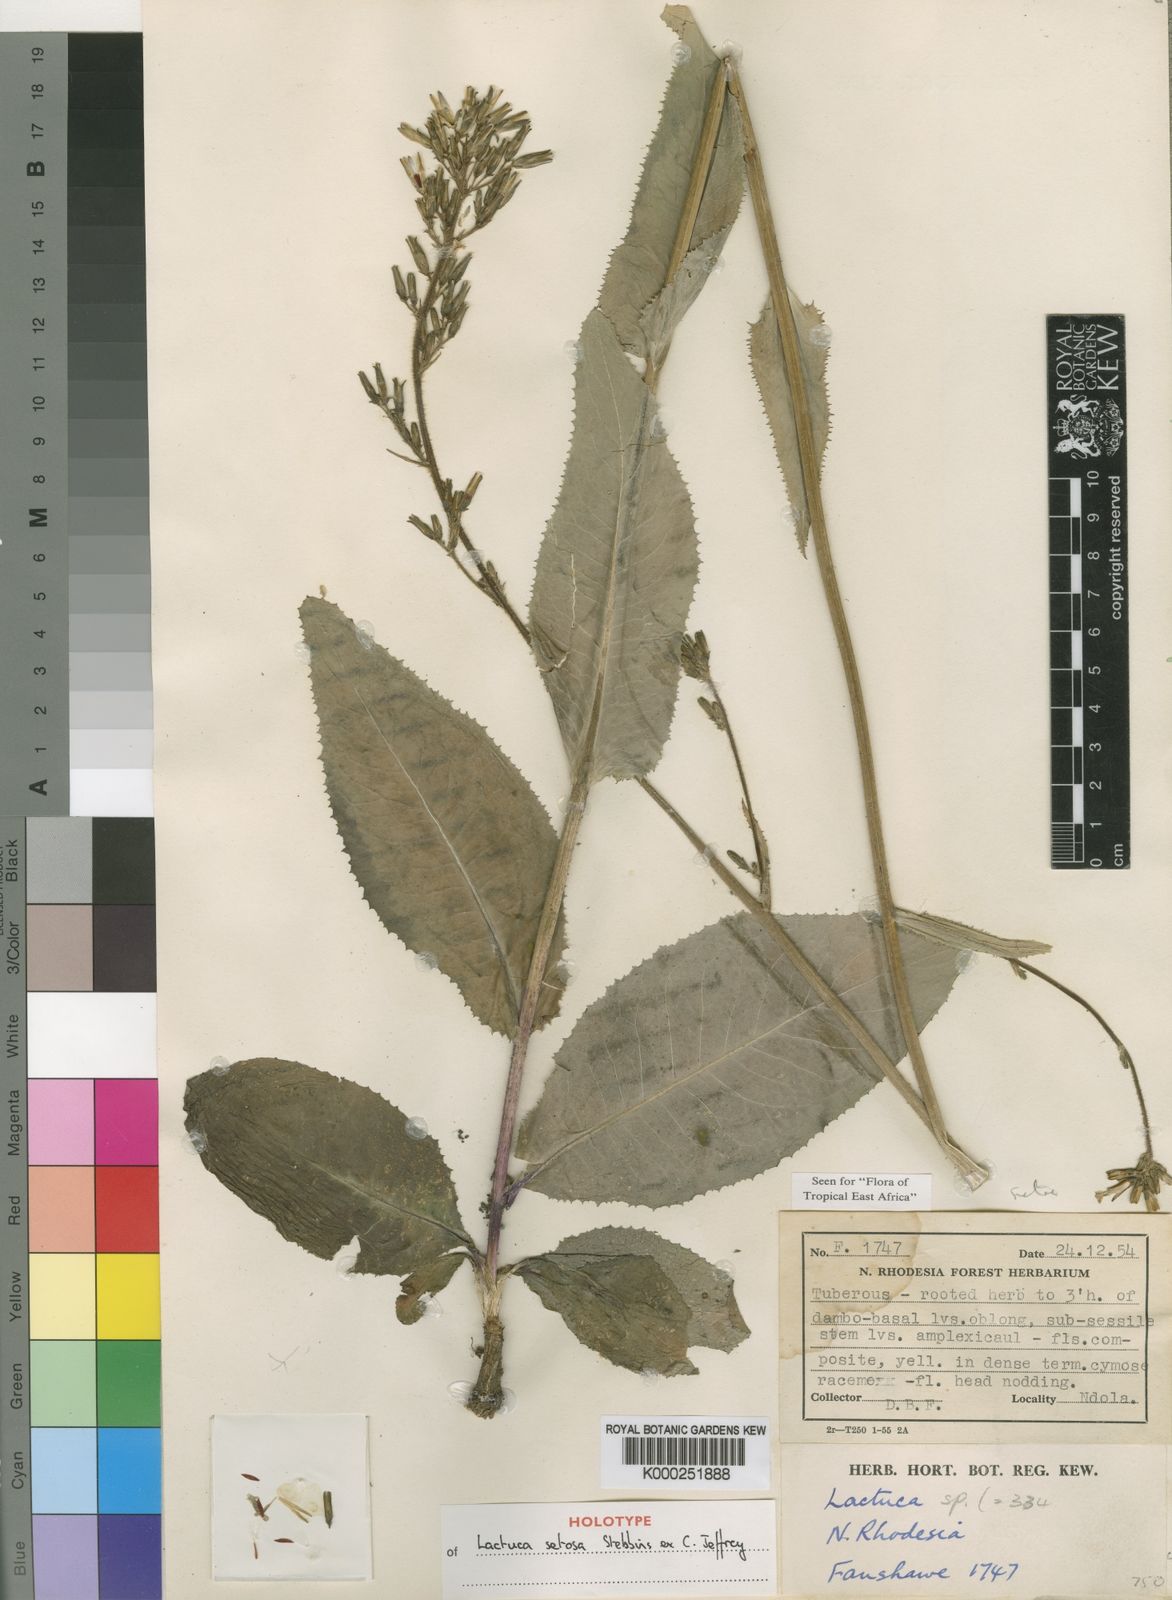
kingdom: Plantae
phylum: Tracheophyta
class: Magnoliopsida
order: Asterales
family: Asteraceae
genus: Lactuca
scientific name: Lactuca setosa
